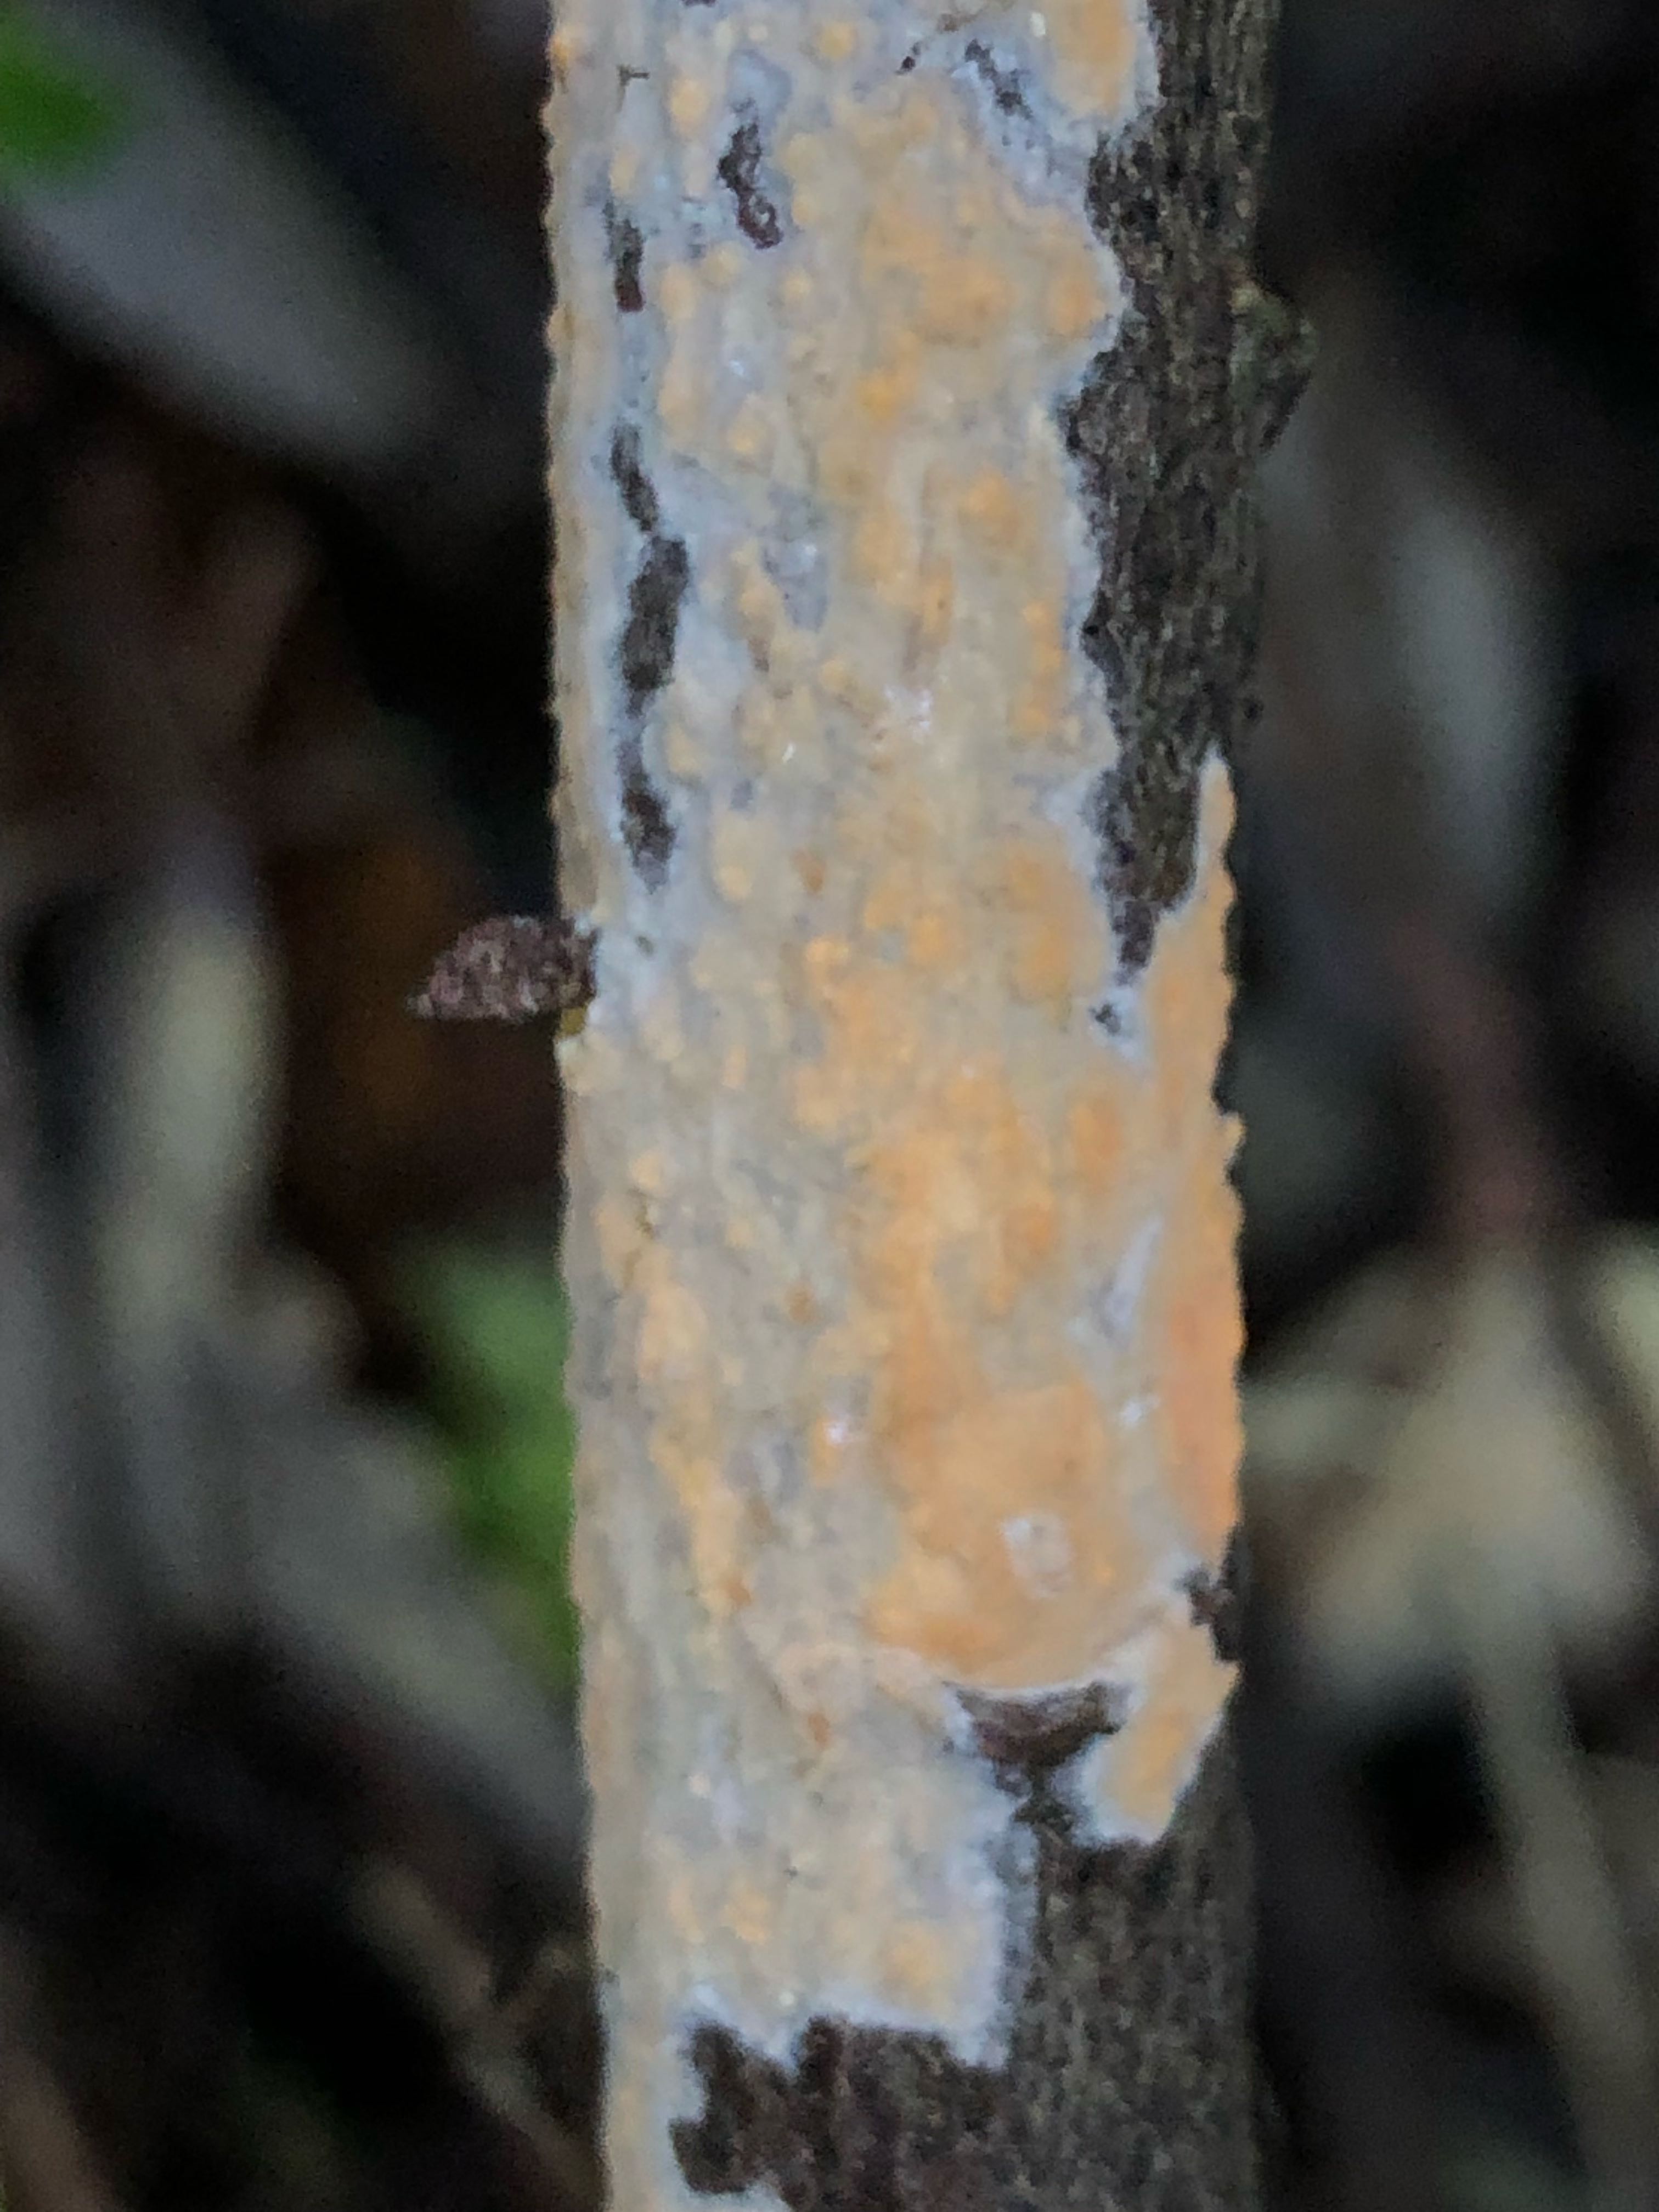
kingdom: Fungi
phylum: Basidiomycota
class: Agaricomycetes
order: Russulales
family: Peniophoraceae
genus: Peniophora
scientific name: Peniophora incarnata
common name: laksefarvet voksskind
